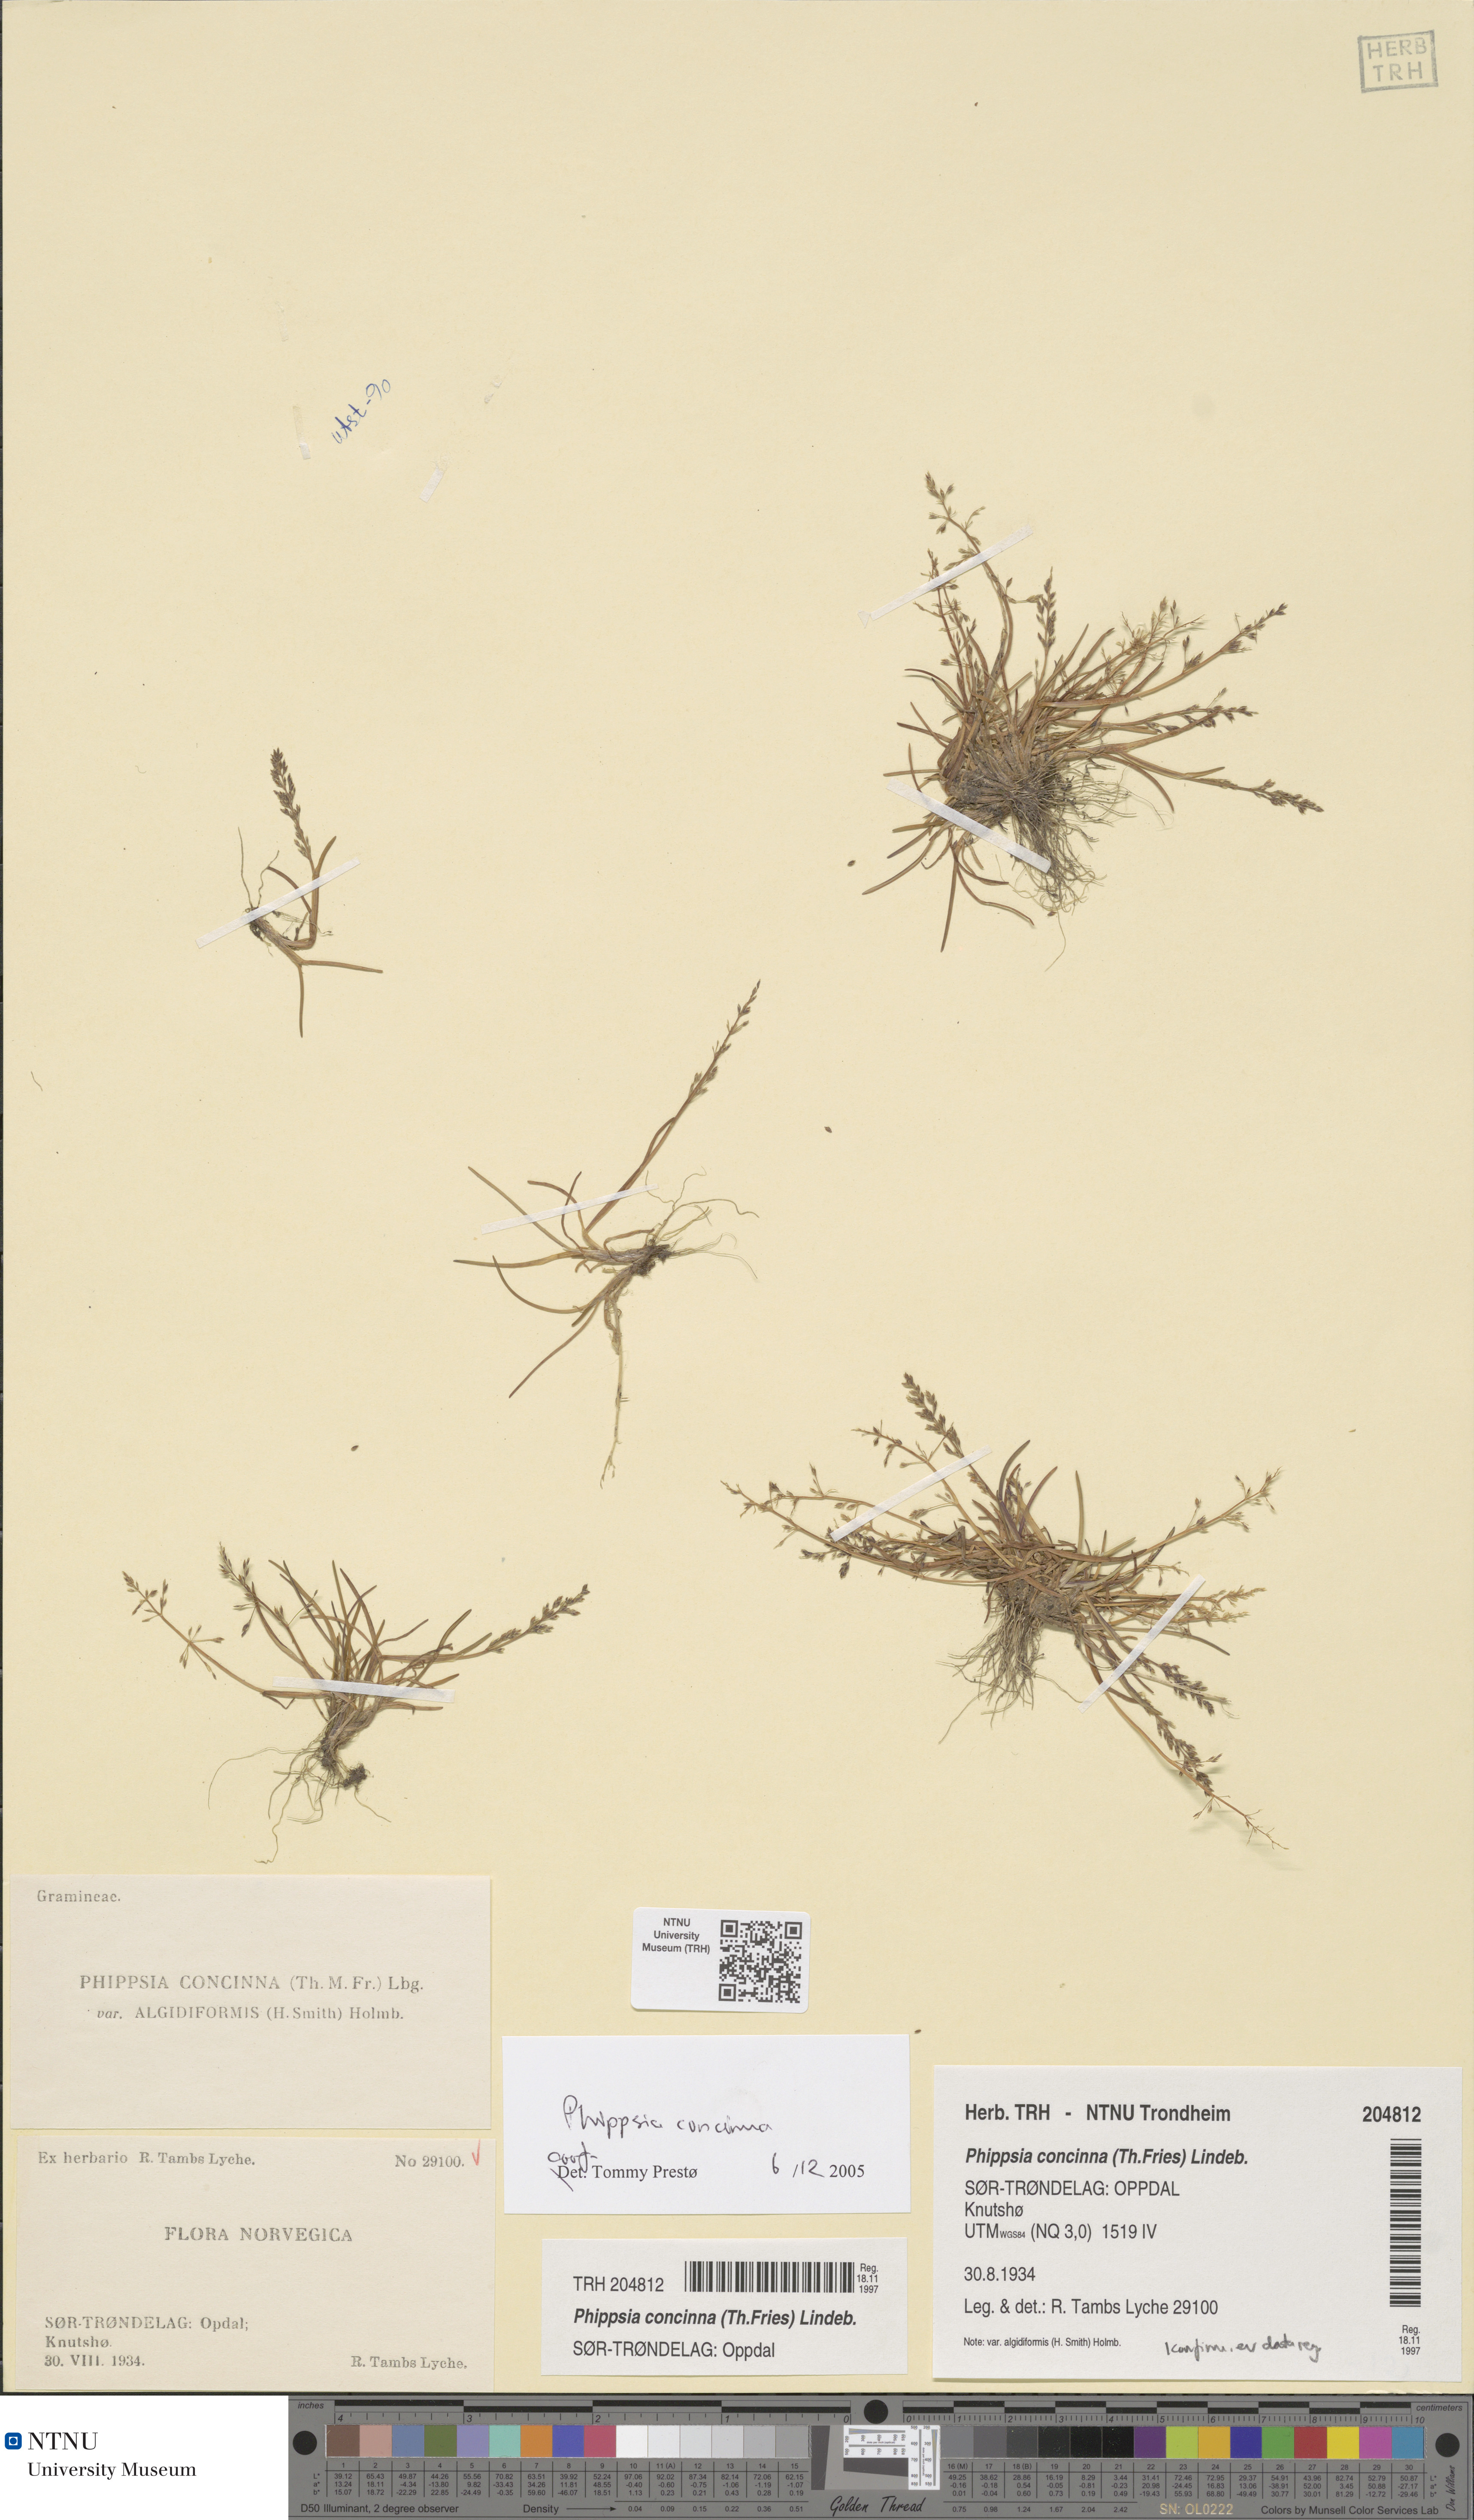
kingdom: Plantae
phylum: Tracheophyta
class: Liliopsida
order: Poales
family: Poaceae
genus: Phippsia
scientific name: Phippsia concinna
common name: Snowgrass
